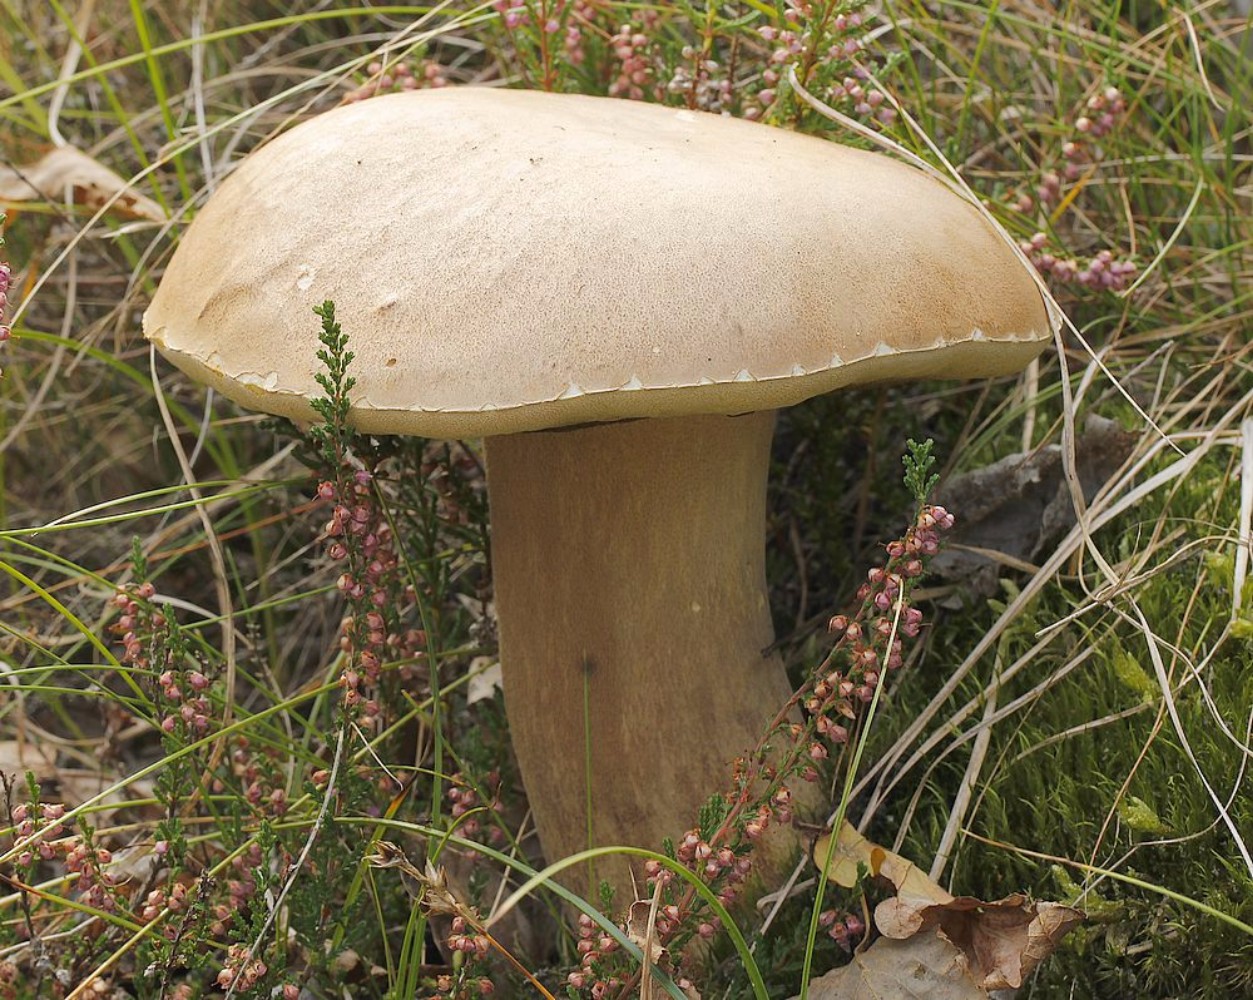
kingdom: Fungi
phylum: Basidiomycota
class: Agaricomycetes
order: Boletales
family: Boletaceae
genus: Boletus
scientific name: Boletus
